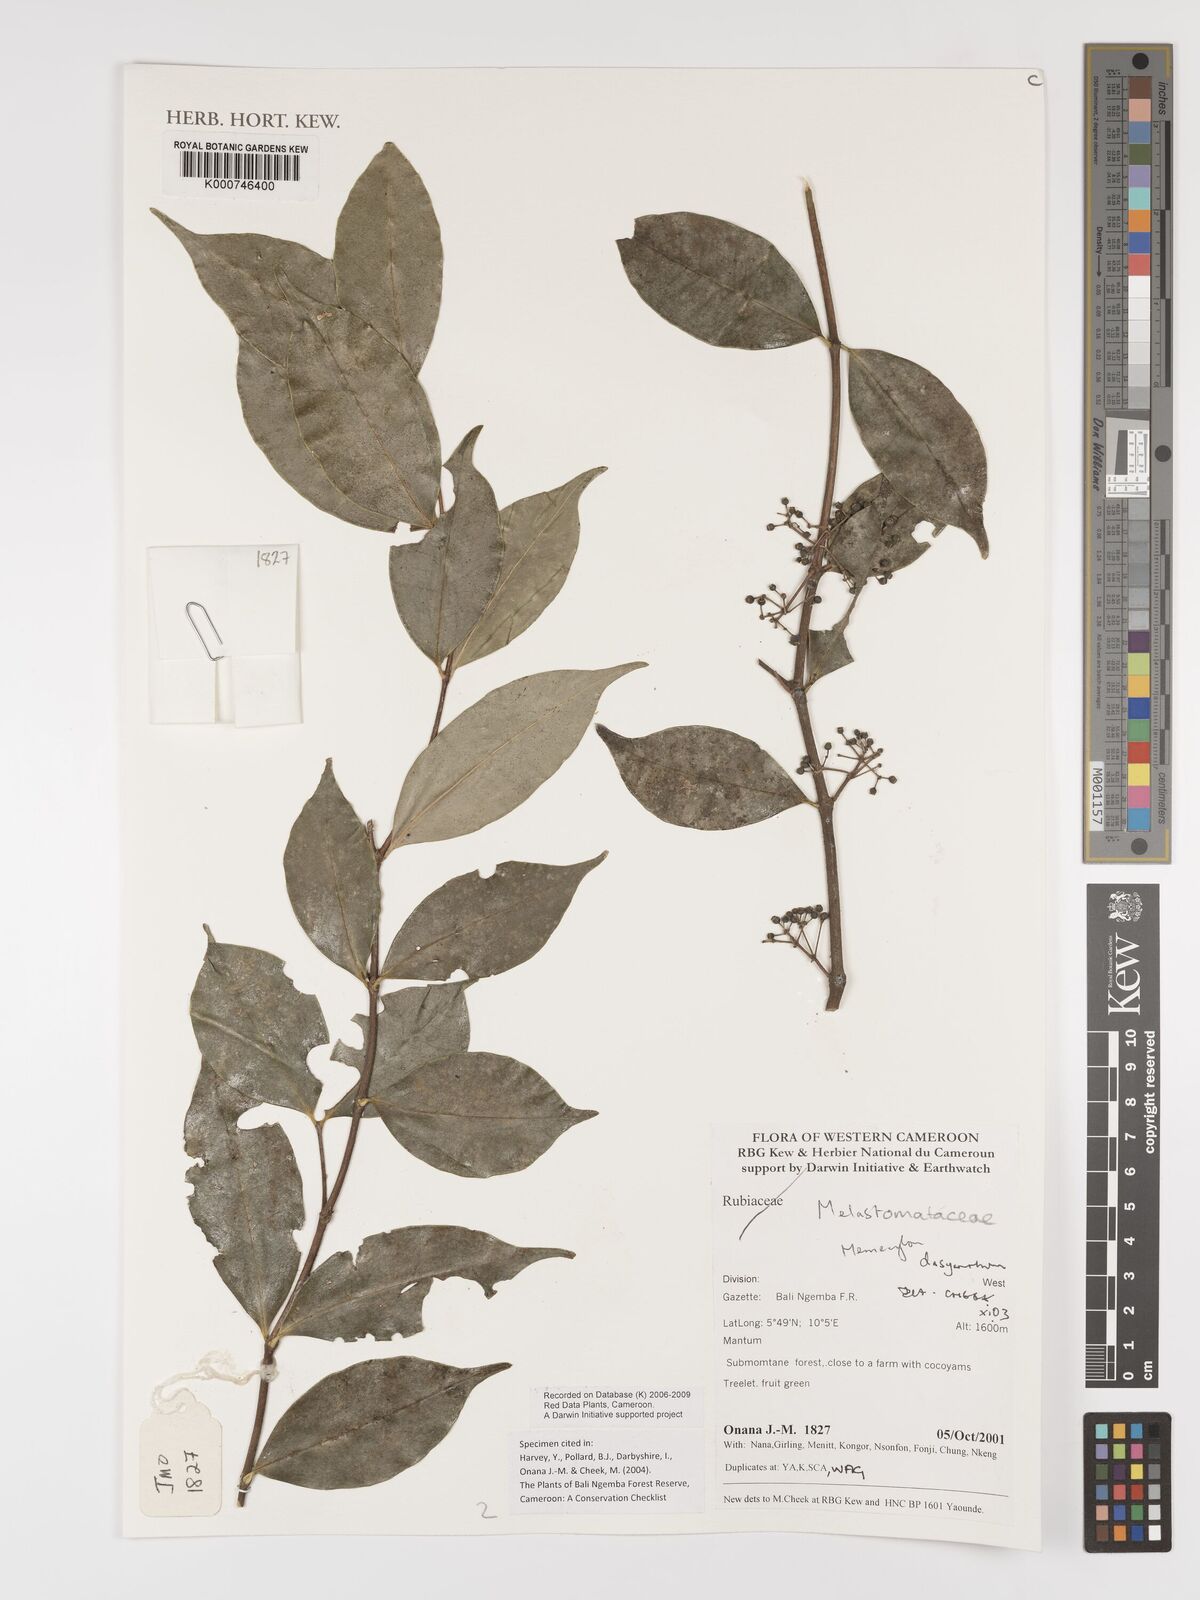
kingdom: Plantae
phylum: Tracheophyta
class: Magnoliopsida
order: Myrtales
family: Melastomataceae
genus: Memecylon
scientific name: Memecylon dasyanthum
